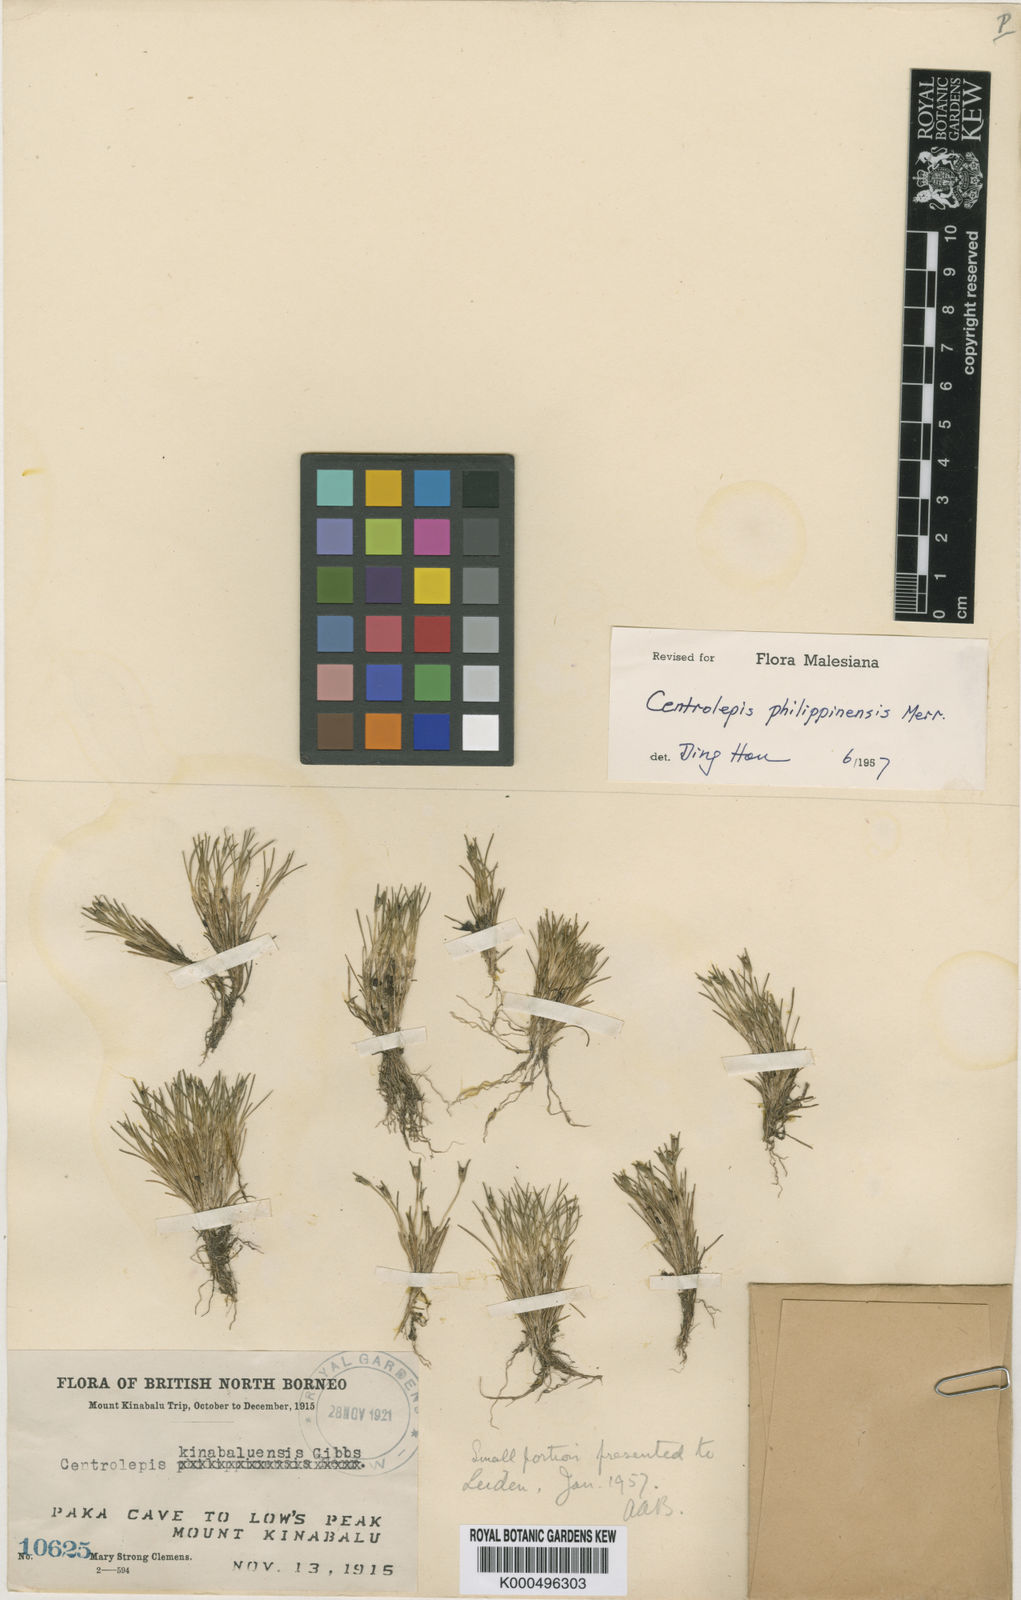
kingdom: Plantae
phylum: Tracheophyta
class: Liliopsida
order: Poales
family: Restionaceae
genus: Centrolepis
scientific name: Centrolepis philippinensis
